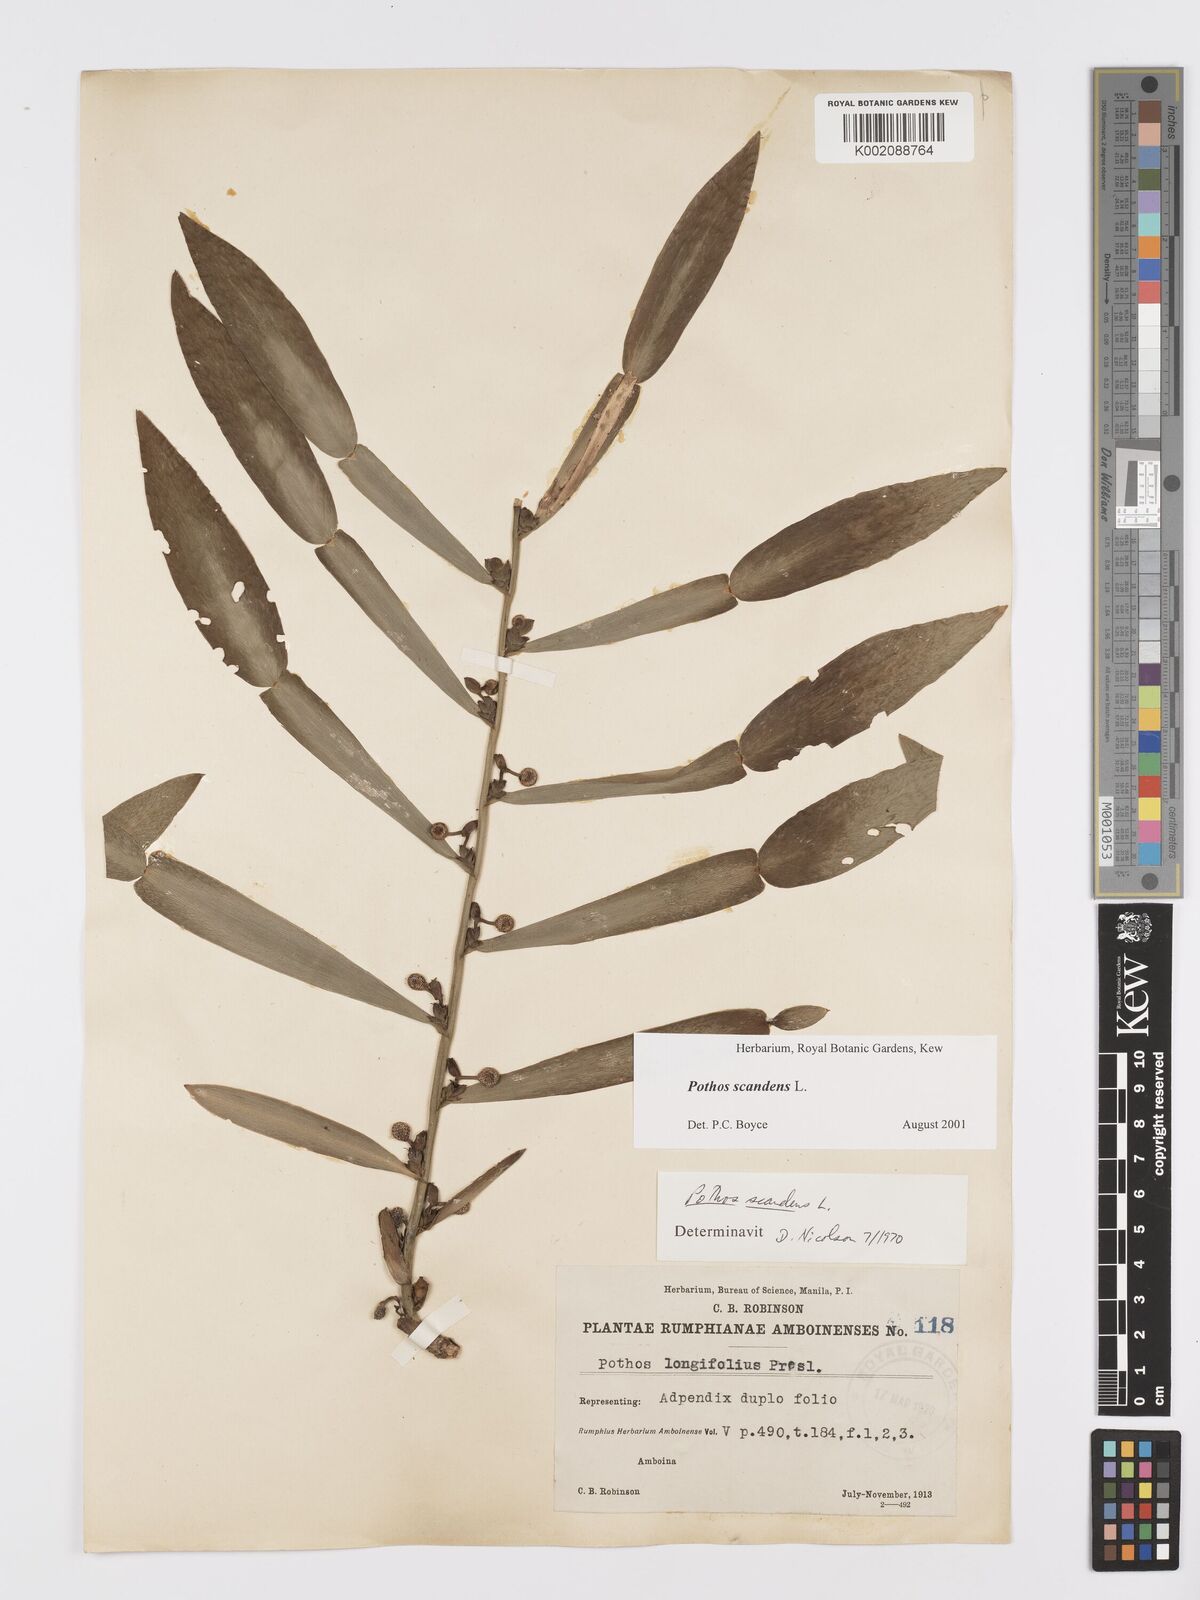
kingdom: Plantae
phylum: Tracheophyta
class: Liliopsida
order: Alismatales
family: Araceae
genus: Pothos
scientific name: Pothos scandens
